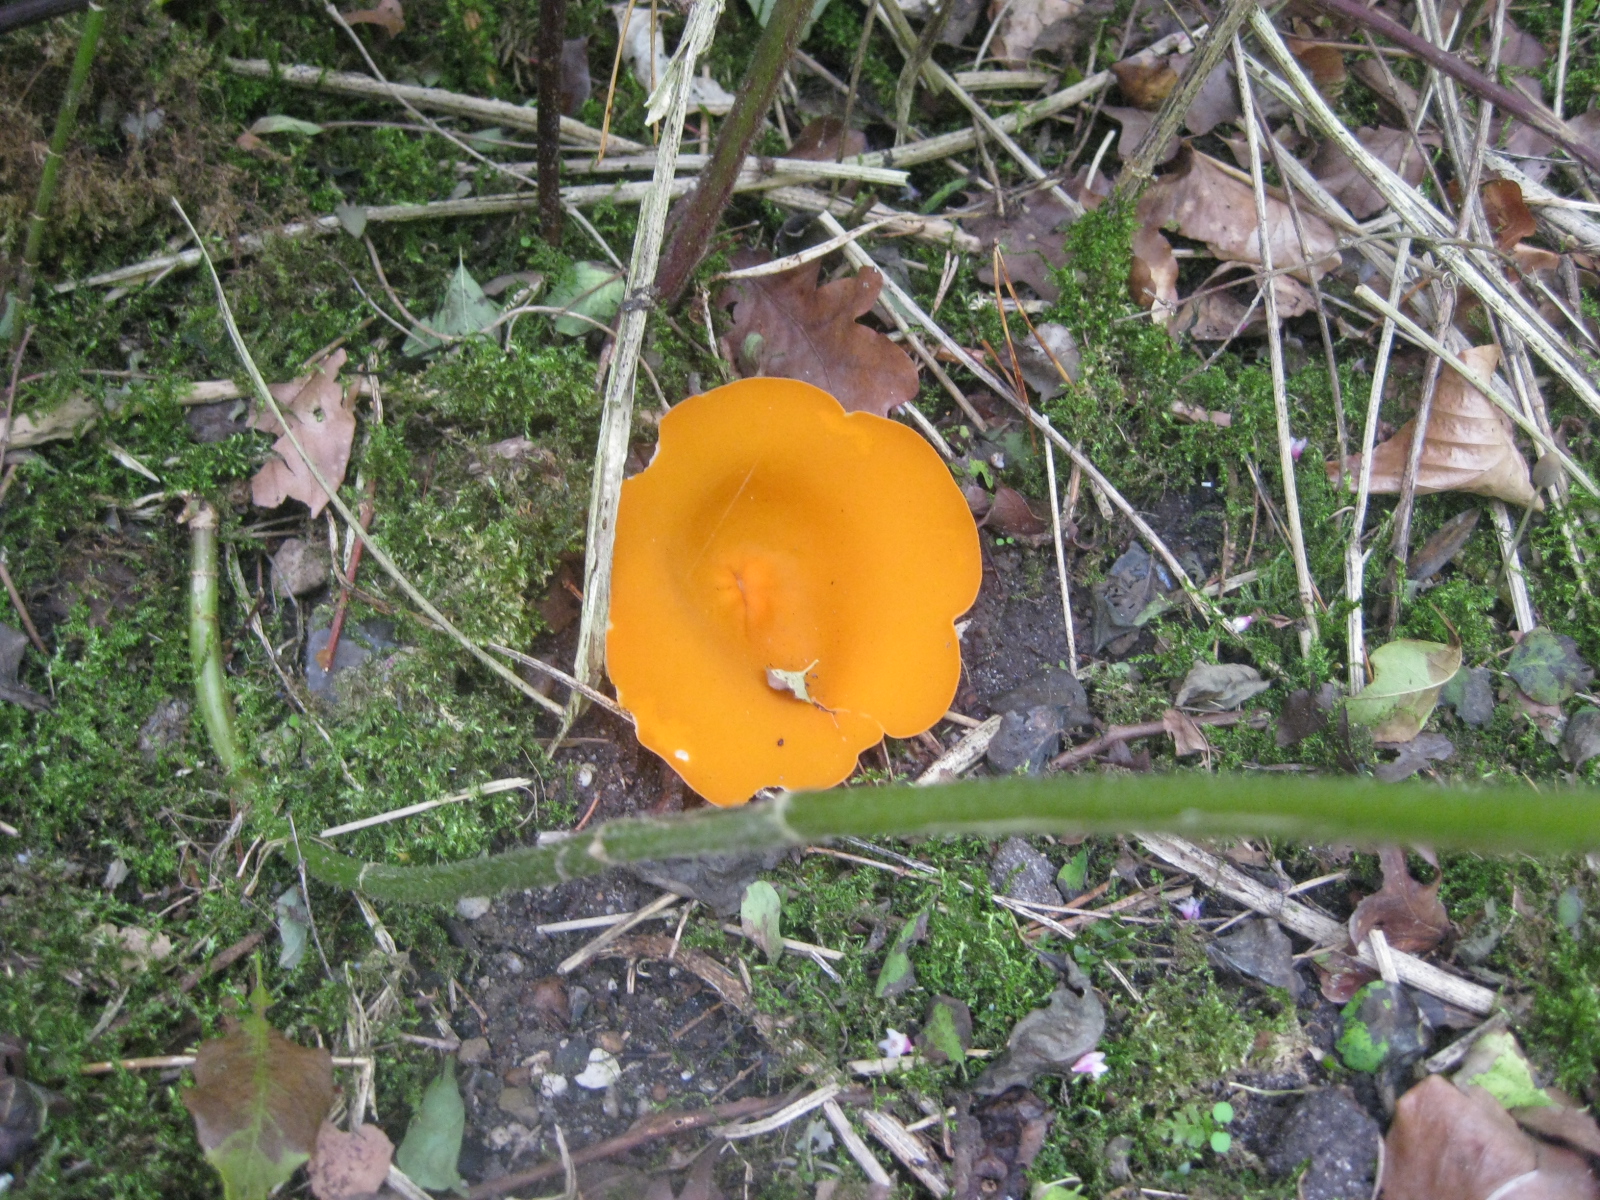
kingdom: Fungi
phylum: Ascomycota
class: Pezizomycetes
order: Pezizales
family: Pyronemataceae
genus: Aleuria
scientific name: Aleuria aurantia
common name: almindelig orangebæger
